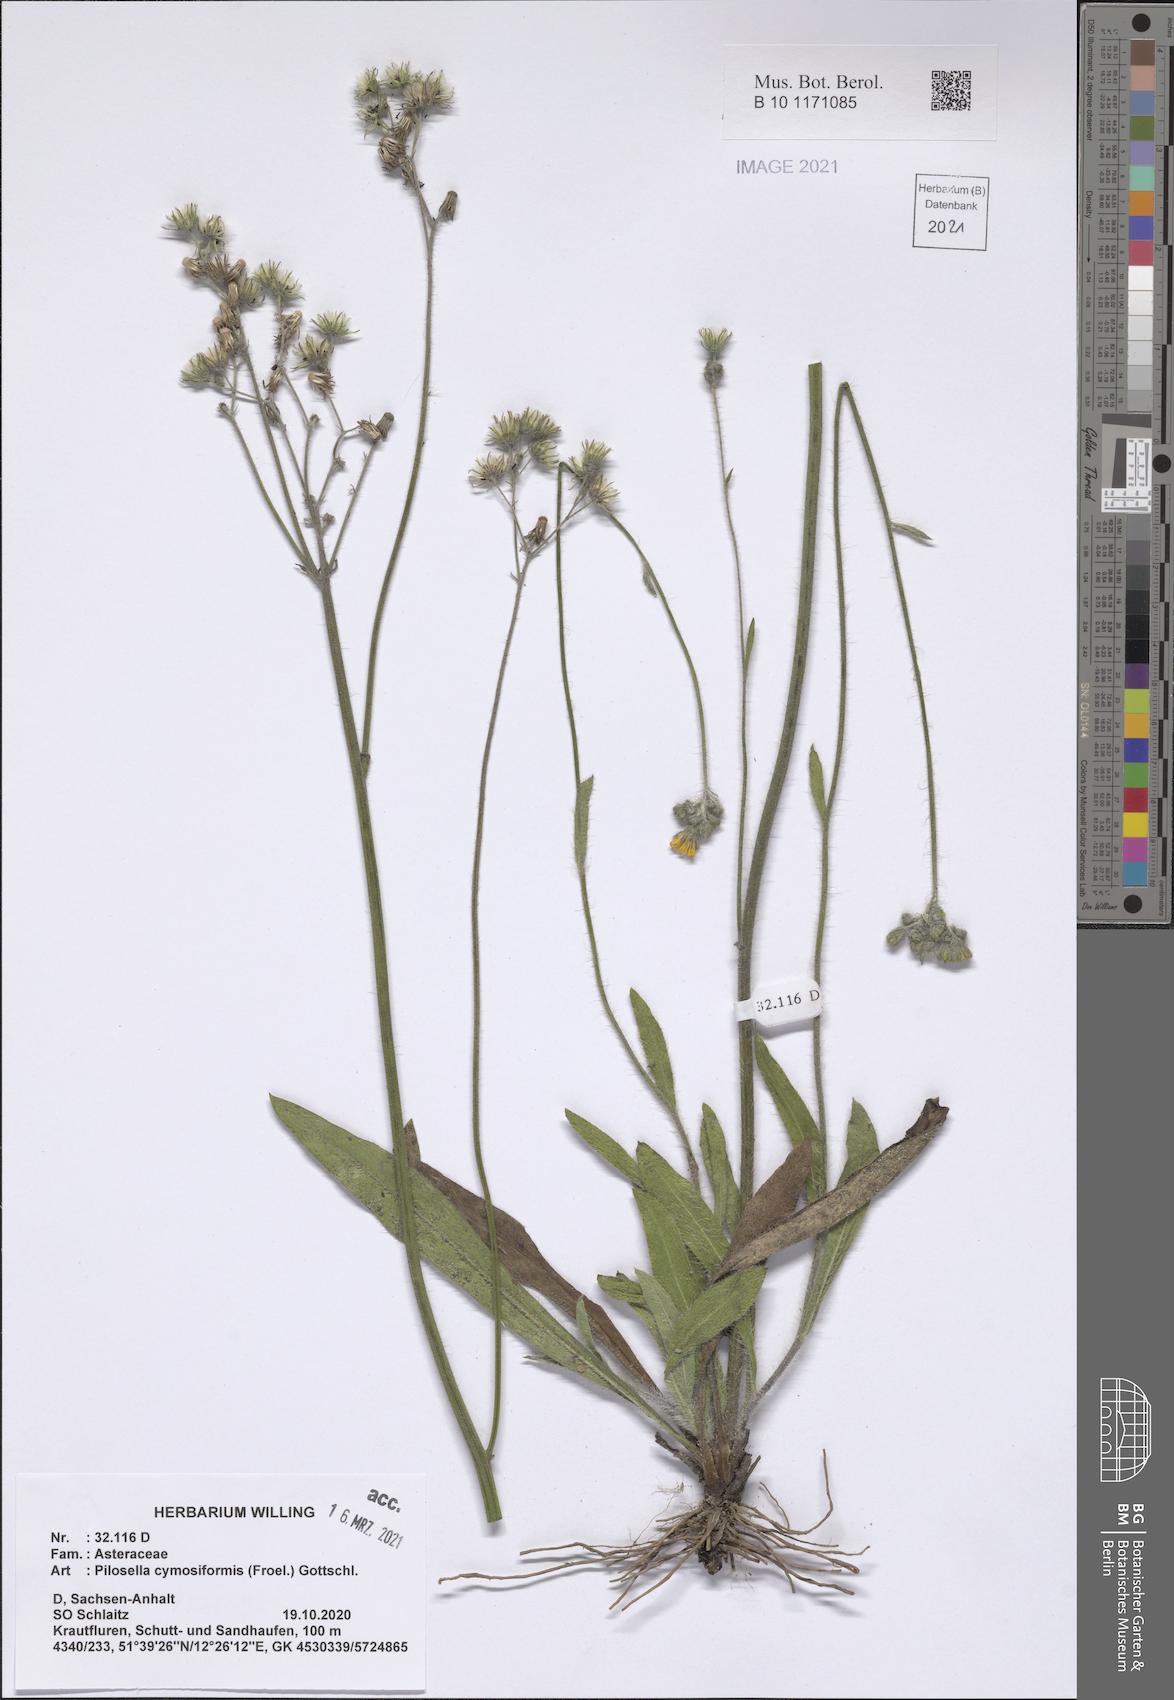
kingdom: Plantae
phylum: Tracheophyta
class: Magnoliopsida
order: Asterales
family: Asteraceae
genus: Pilosella
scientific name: Pilosella cymosiformis
